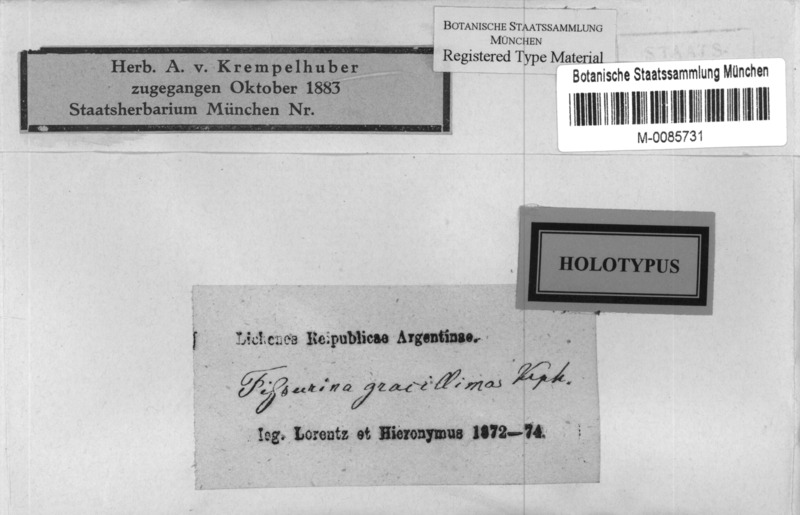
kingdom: Fungi
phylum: Ascomycota
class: Lecanoromycetes
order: Ostropales
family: Graphidaceae
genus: Graphis
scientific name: Graphis
